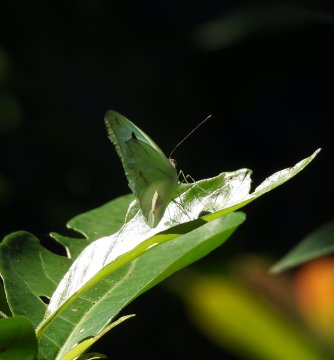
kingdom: Animalia
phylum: Arthropoda
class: Insecta
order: Lepidoptera
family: Pieridae
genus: Ganyra
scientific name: Ganyra josephina
